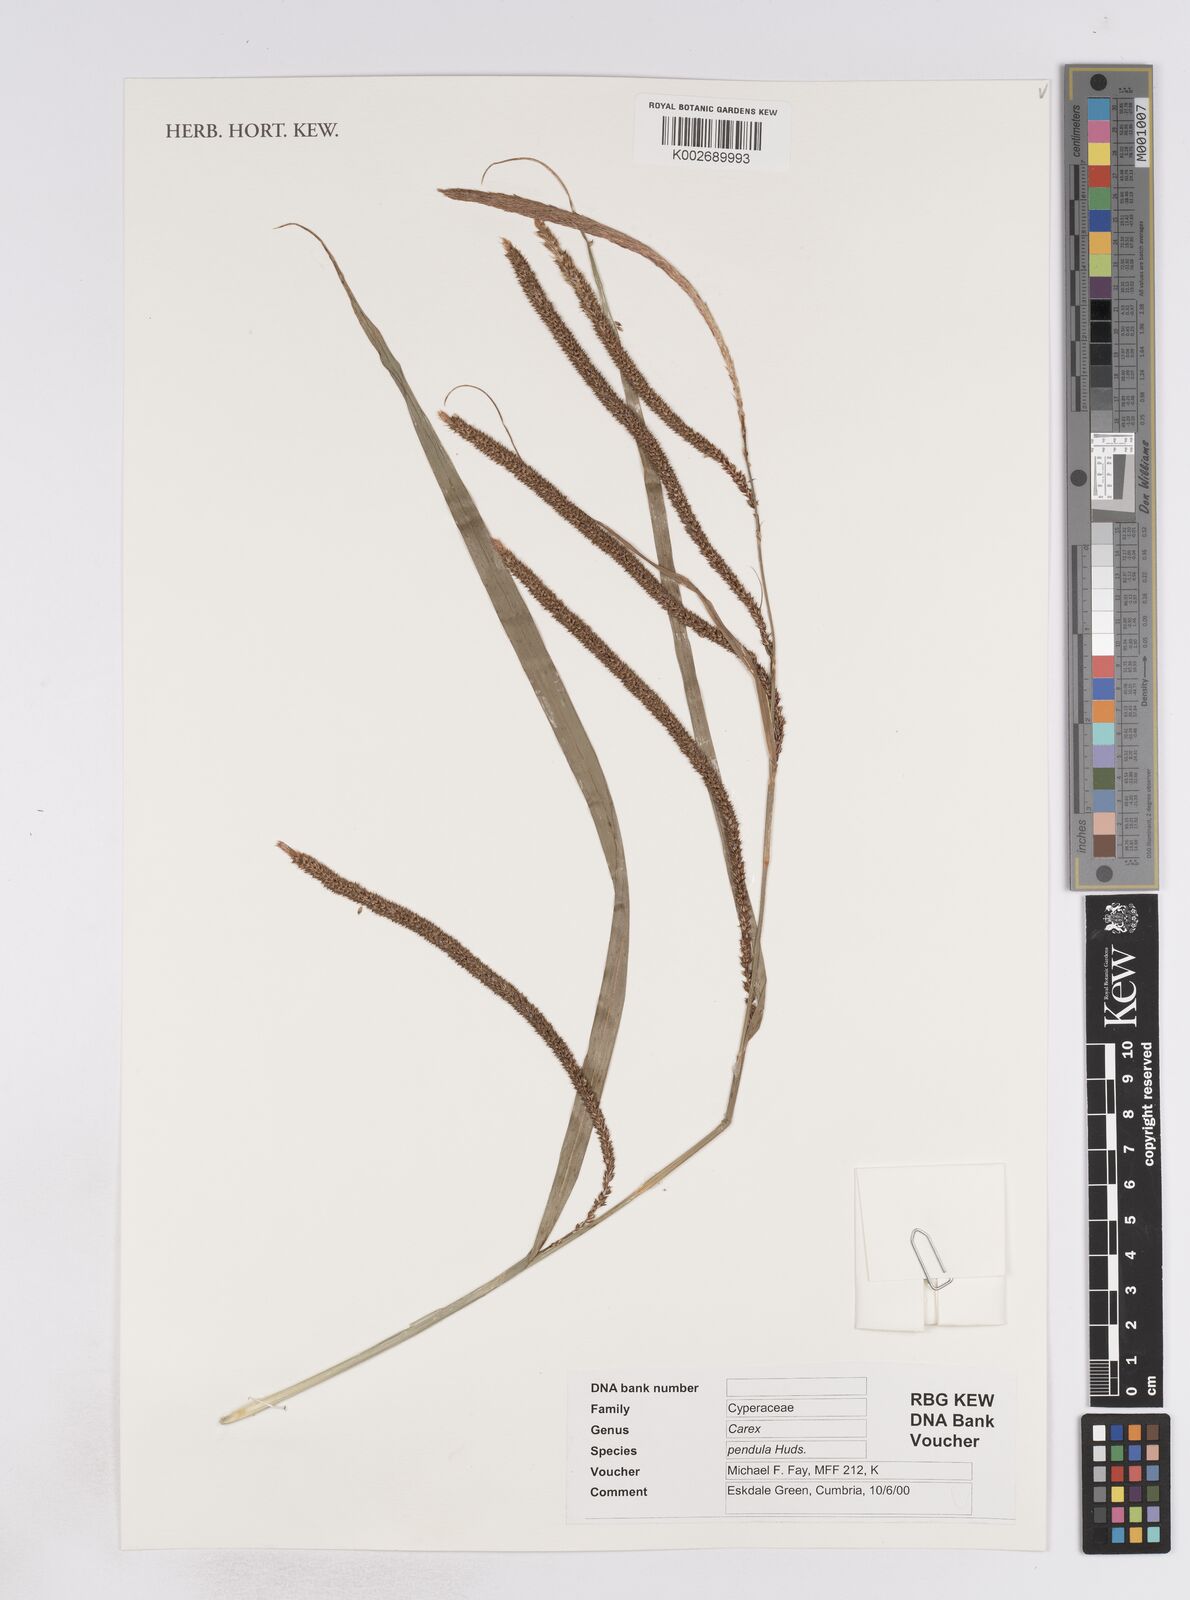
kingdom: Plantae
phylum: Tracheophyta
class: Liliopsida
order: Poales
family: Cyperaceae
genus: Carex
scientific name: Carex pendula
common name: Pendulous sedge
